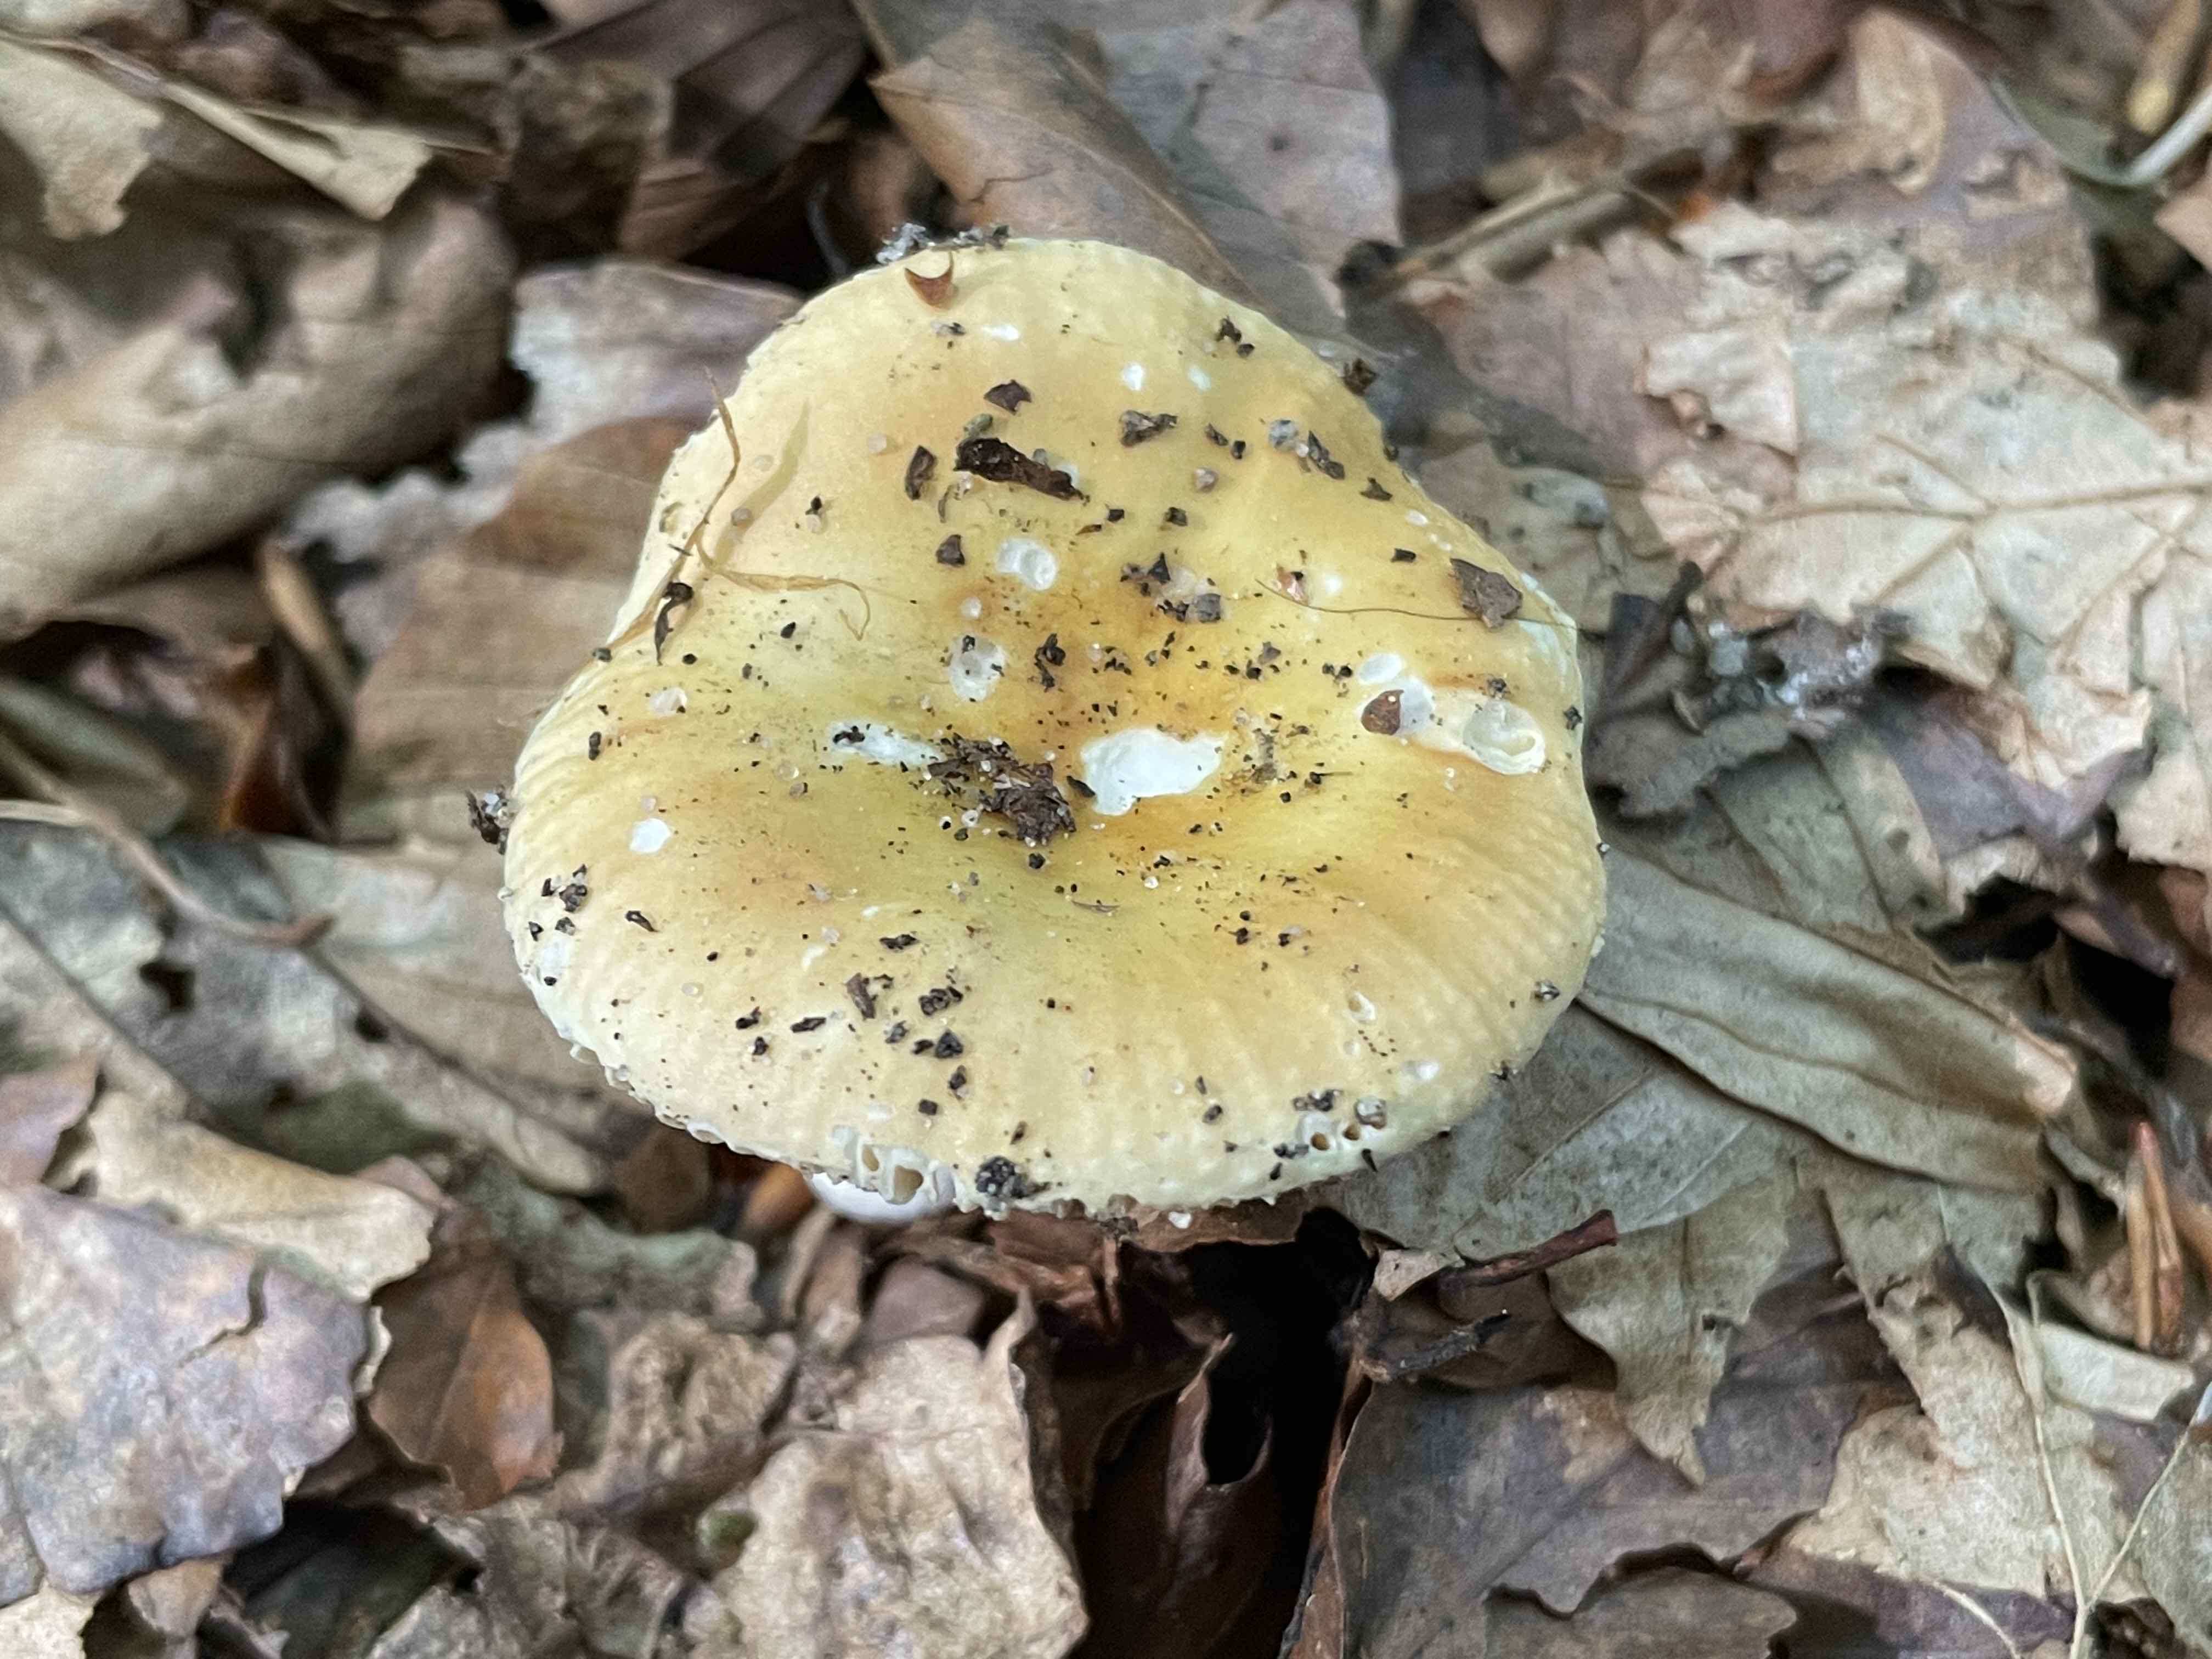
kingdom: Fungi
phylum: Basidiomycota
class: Agaricomycetes
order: Russulales
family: Russulaceae
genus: Russula
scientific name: Russula risigallina
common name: abrikos-skørhat
